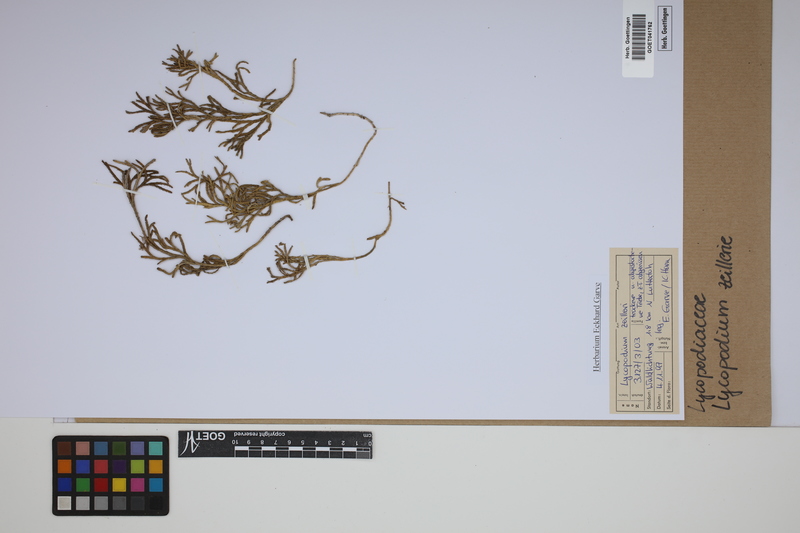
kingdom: Plantae
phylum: Tracheophyta
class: Lycopodiopsida
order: Lycopodiales
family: Lycopodiaceae
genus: Diphasiastrum
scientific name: Diphasiastrum zeilleri
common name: Zeiller's clubmoss
